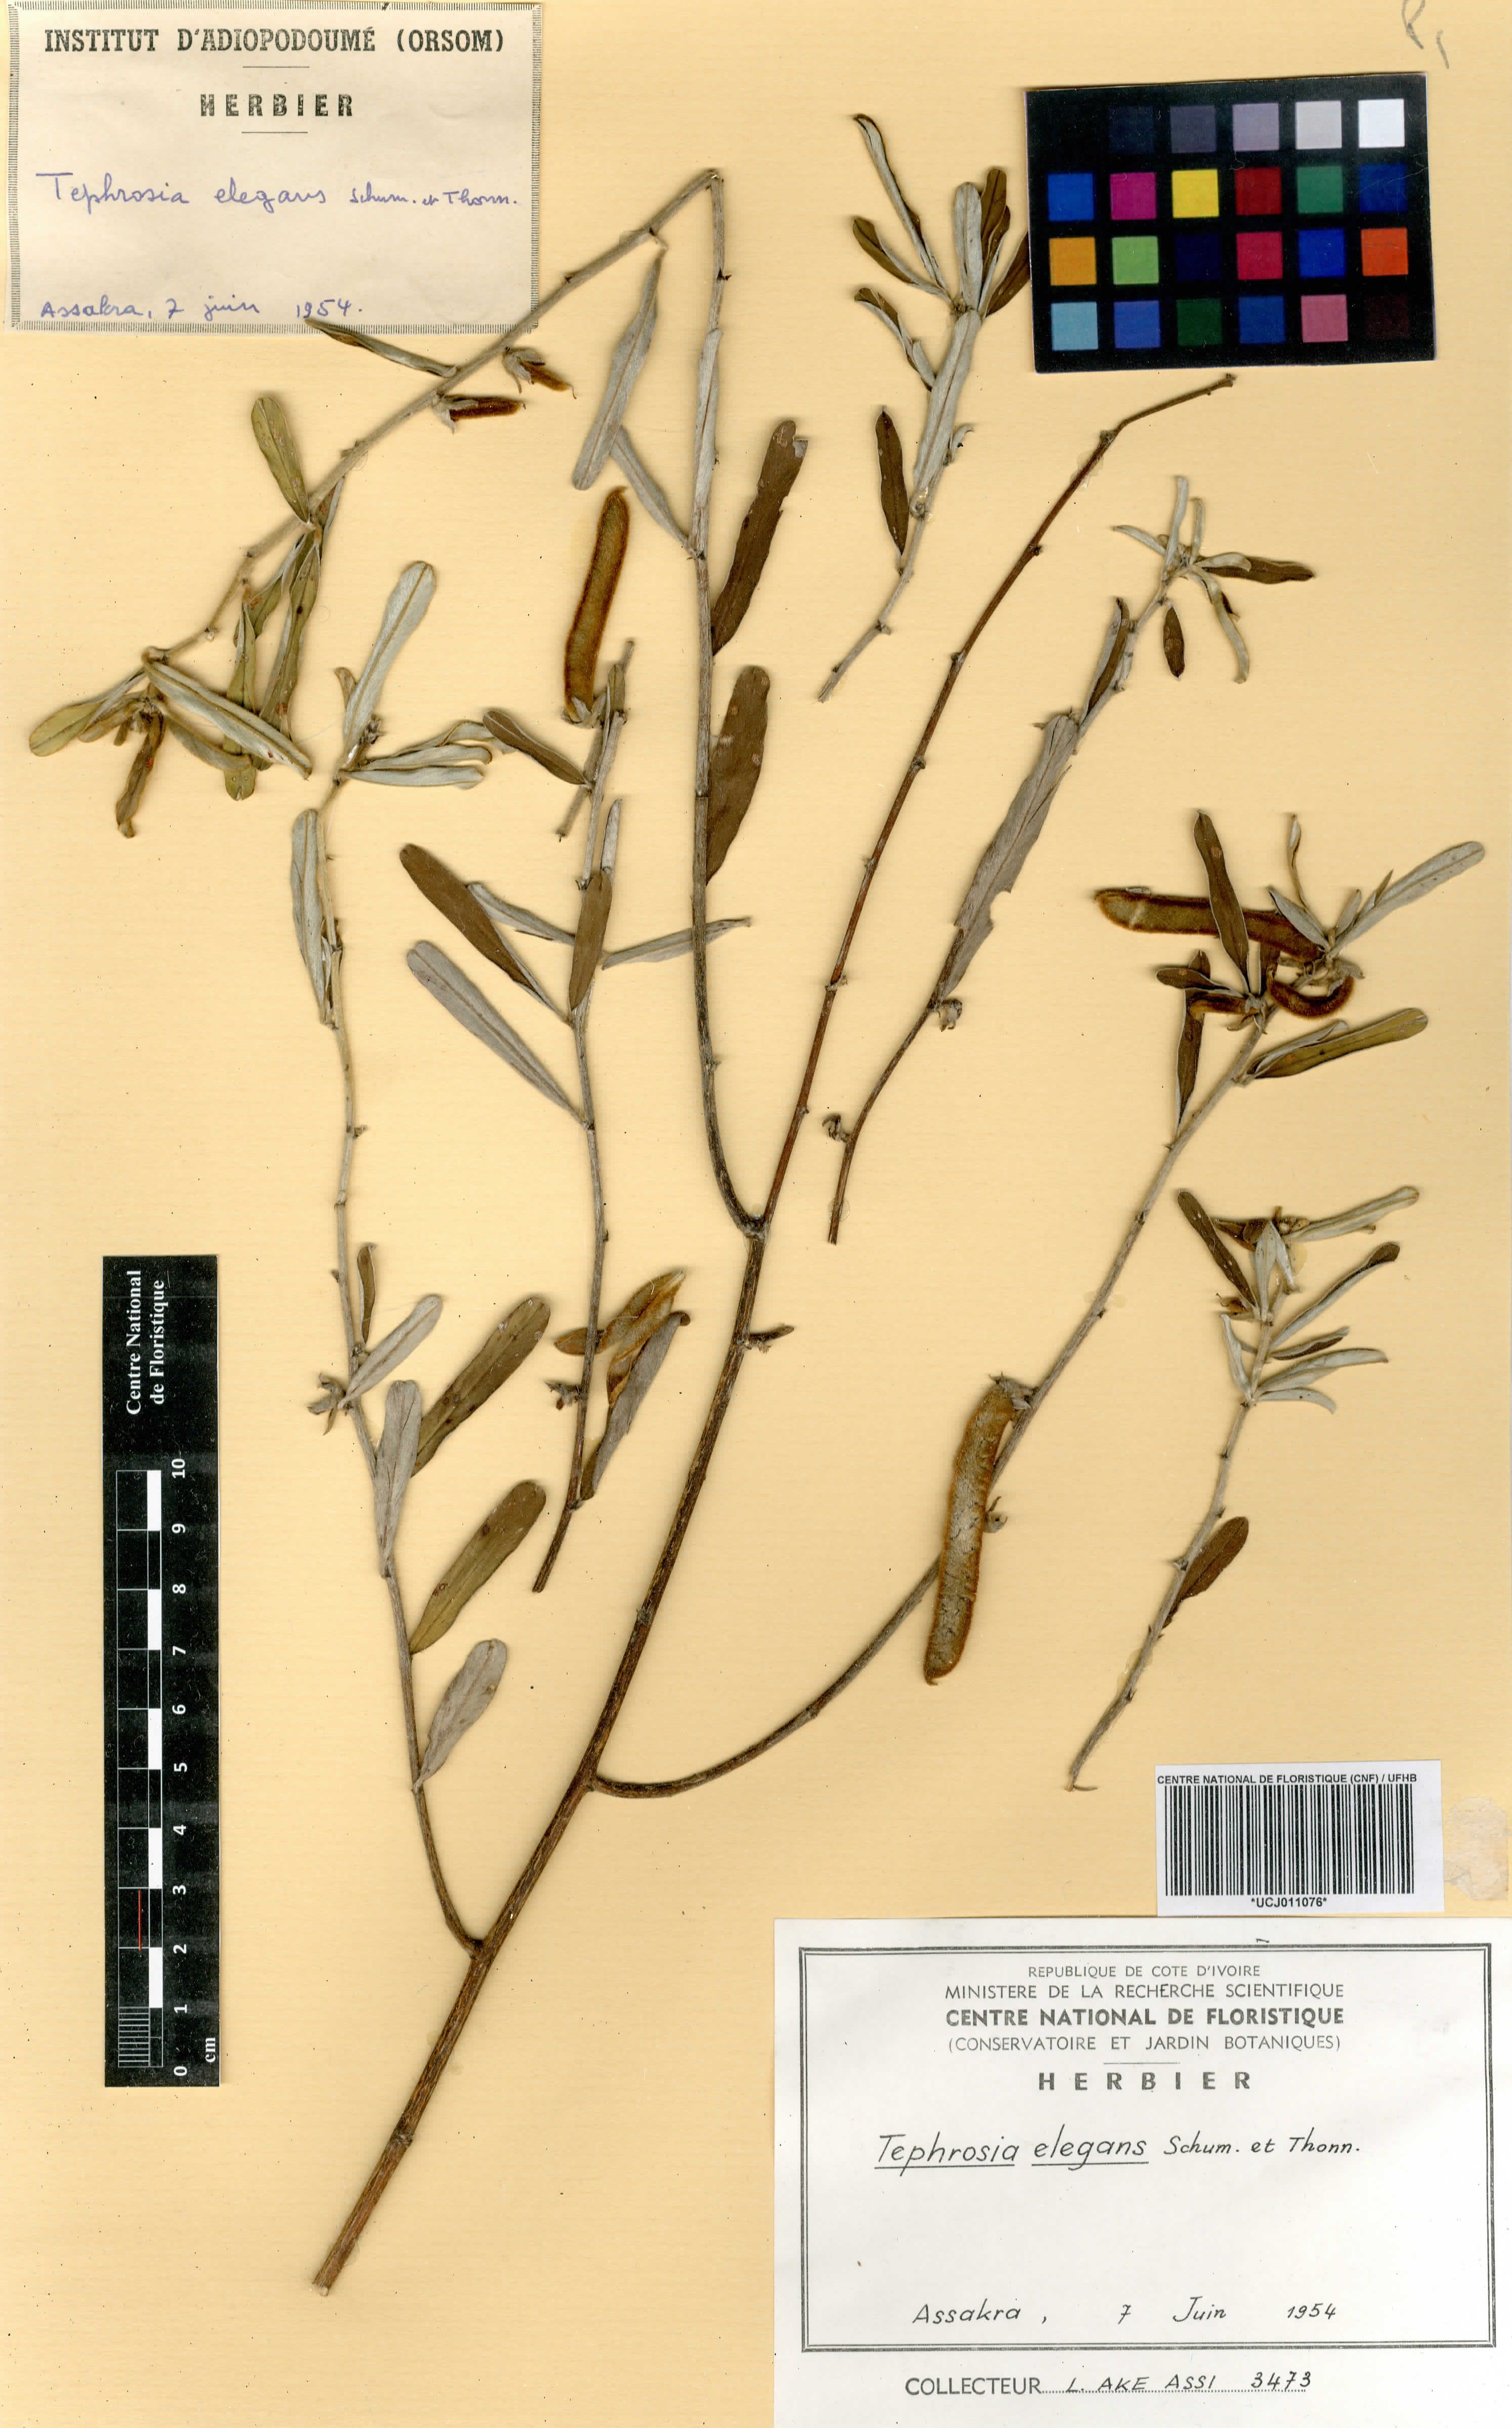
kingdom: Plantae
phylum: Tracheophyta
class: Magnoliopsida
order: Fabales
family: Fabaceae
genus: Tephrosia
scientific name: Tephrosia elegans
